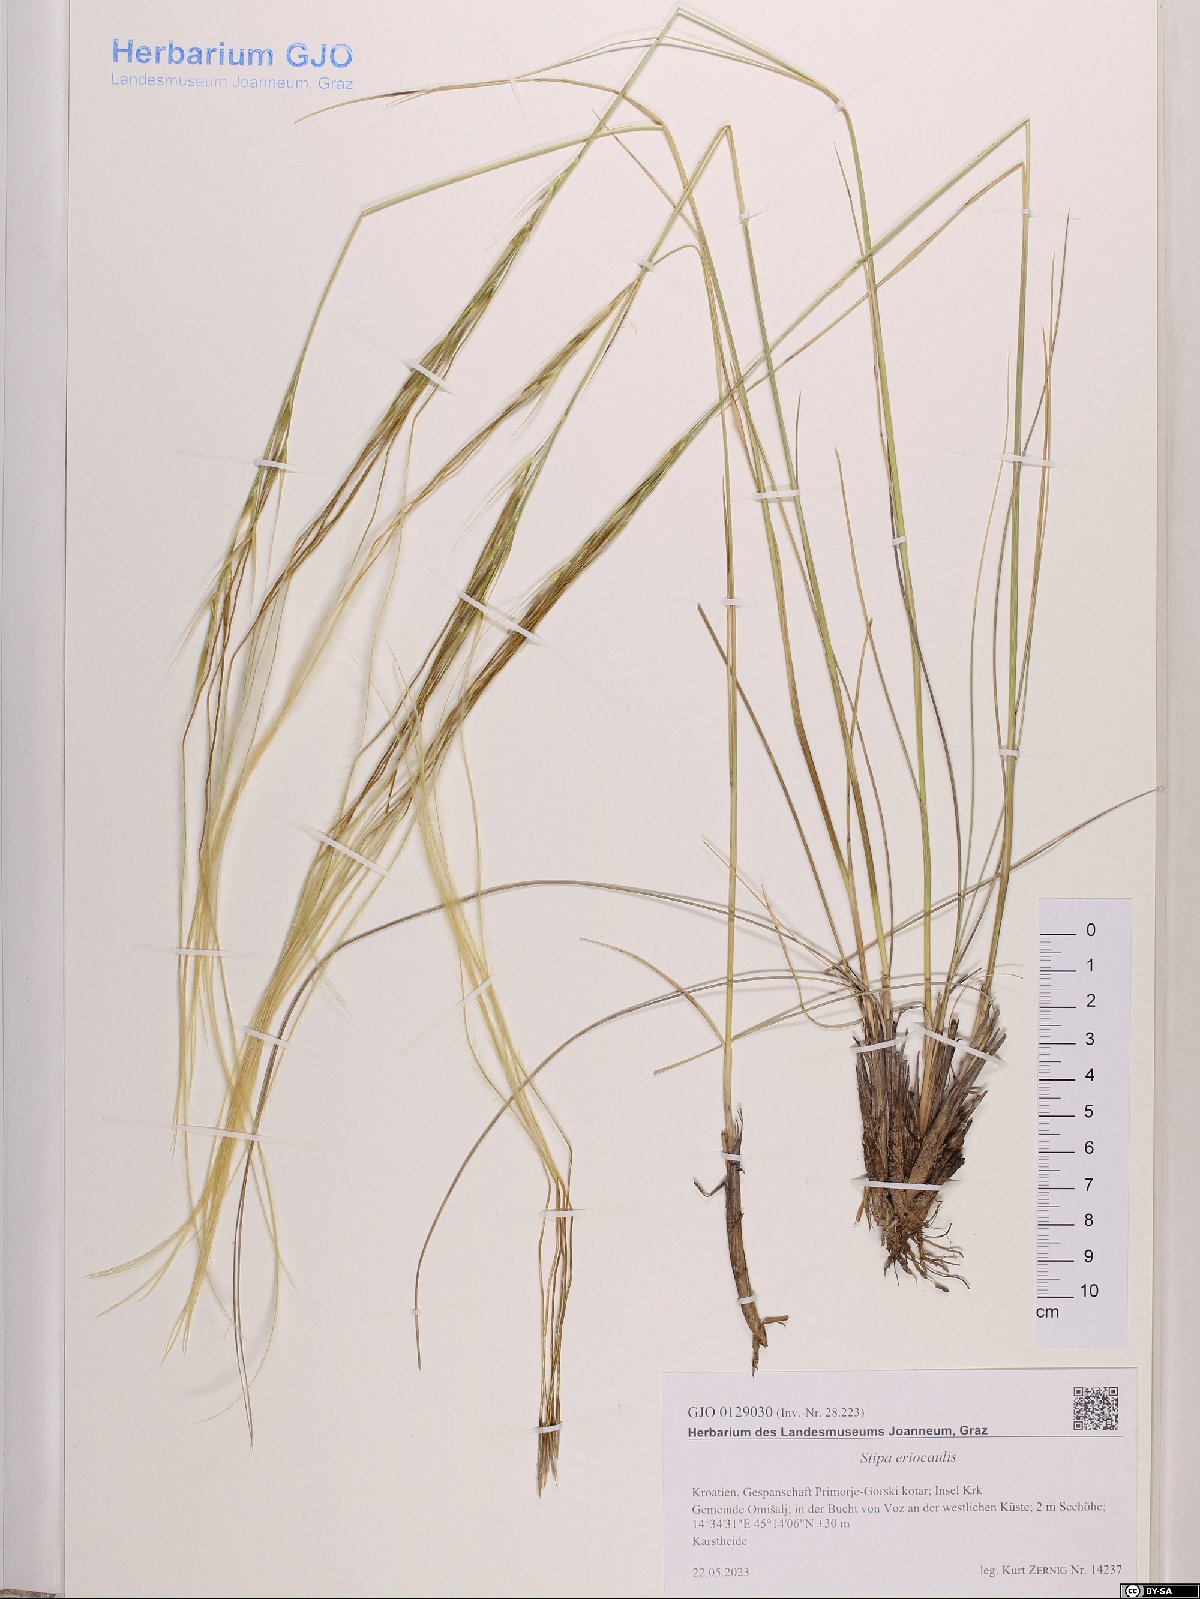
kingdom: Plantae
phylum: Tracheophyta
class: Liliopsida
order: Poales
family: Poaceae
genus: Stipa
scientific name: Stipa pennata
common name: European feather grass
